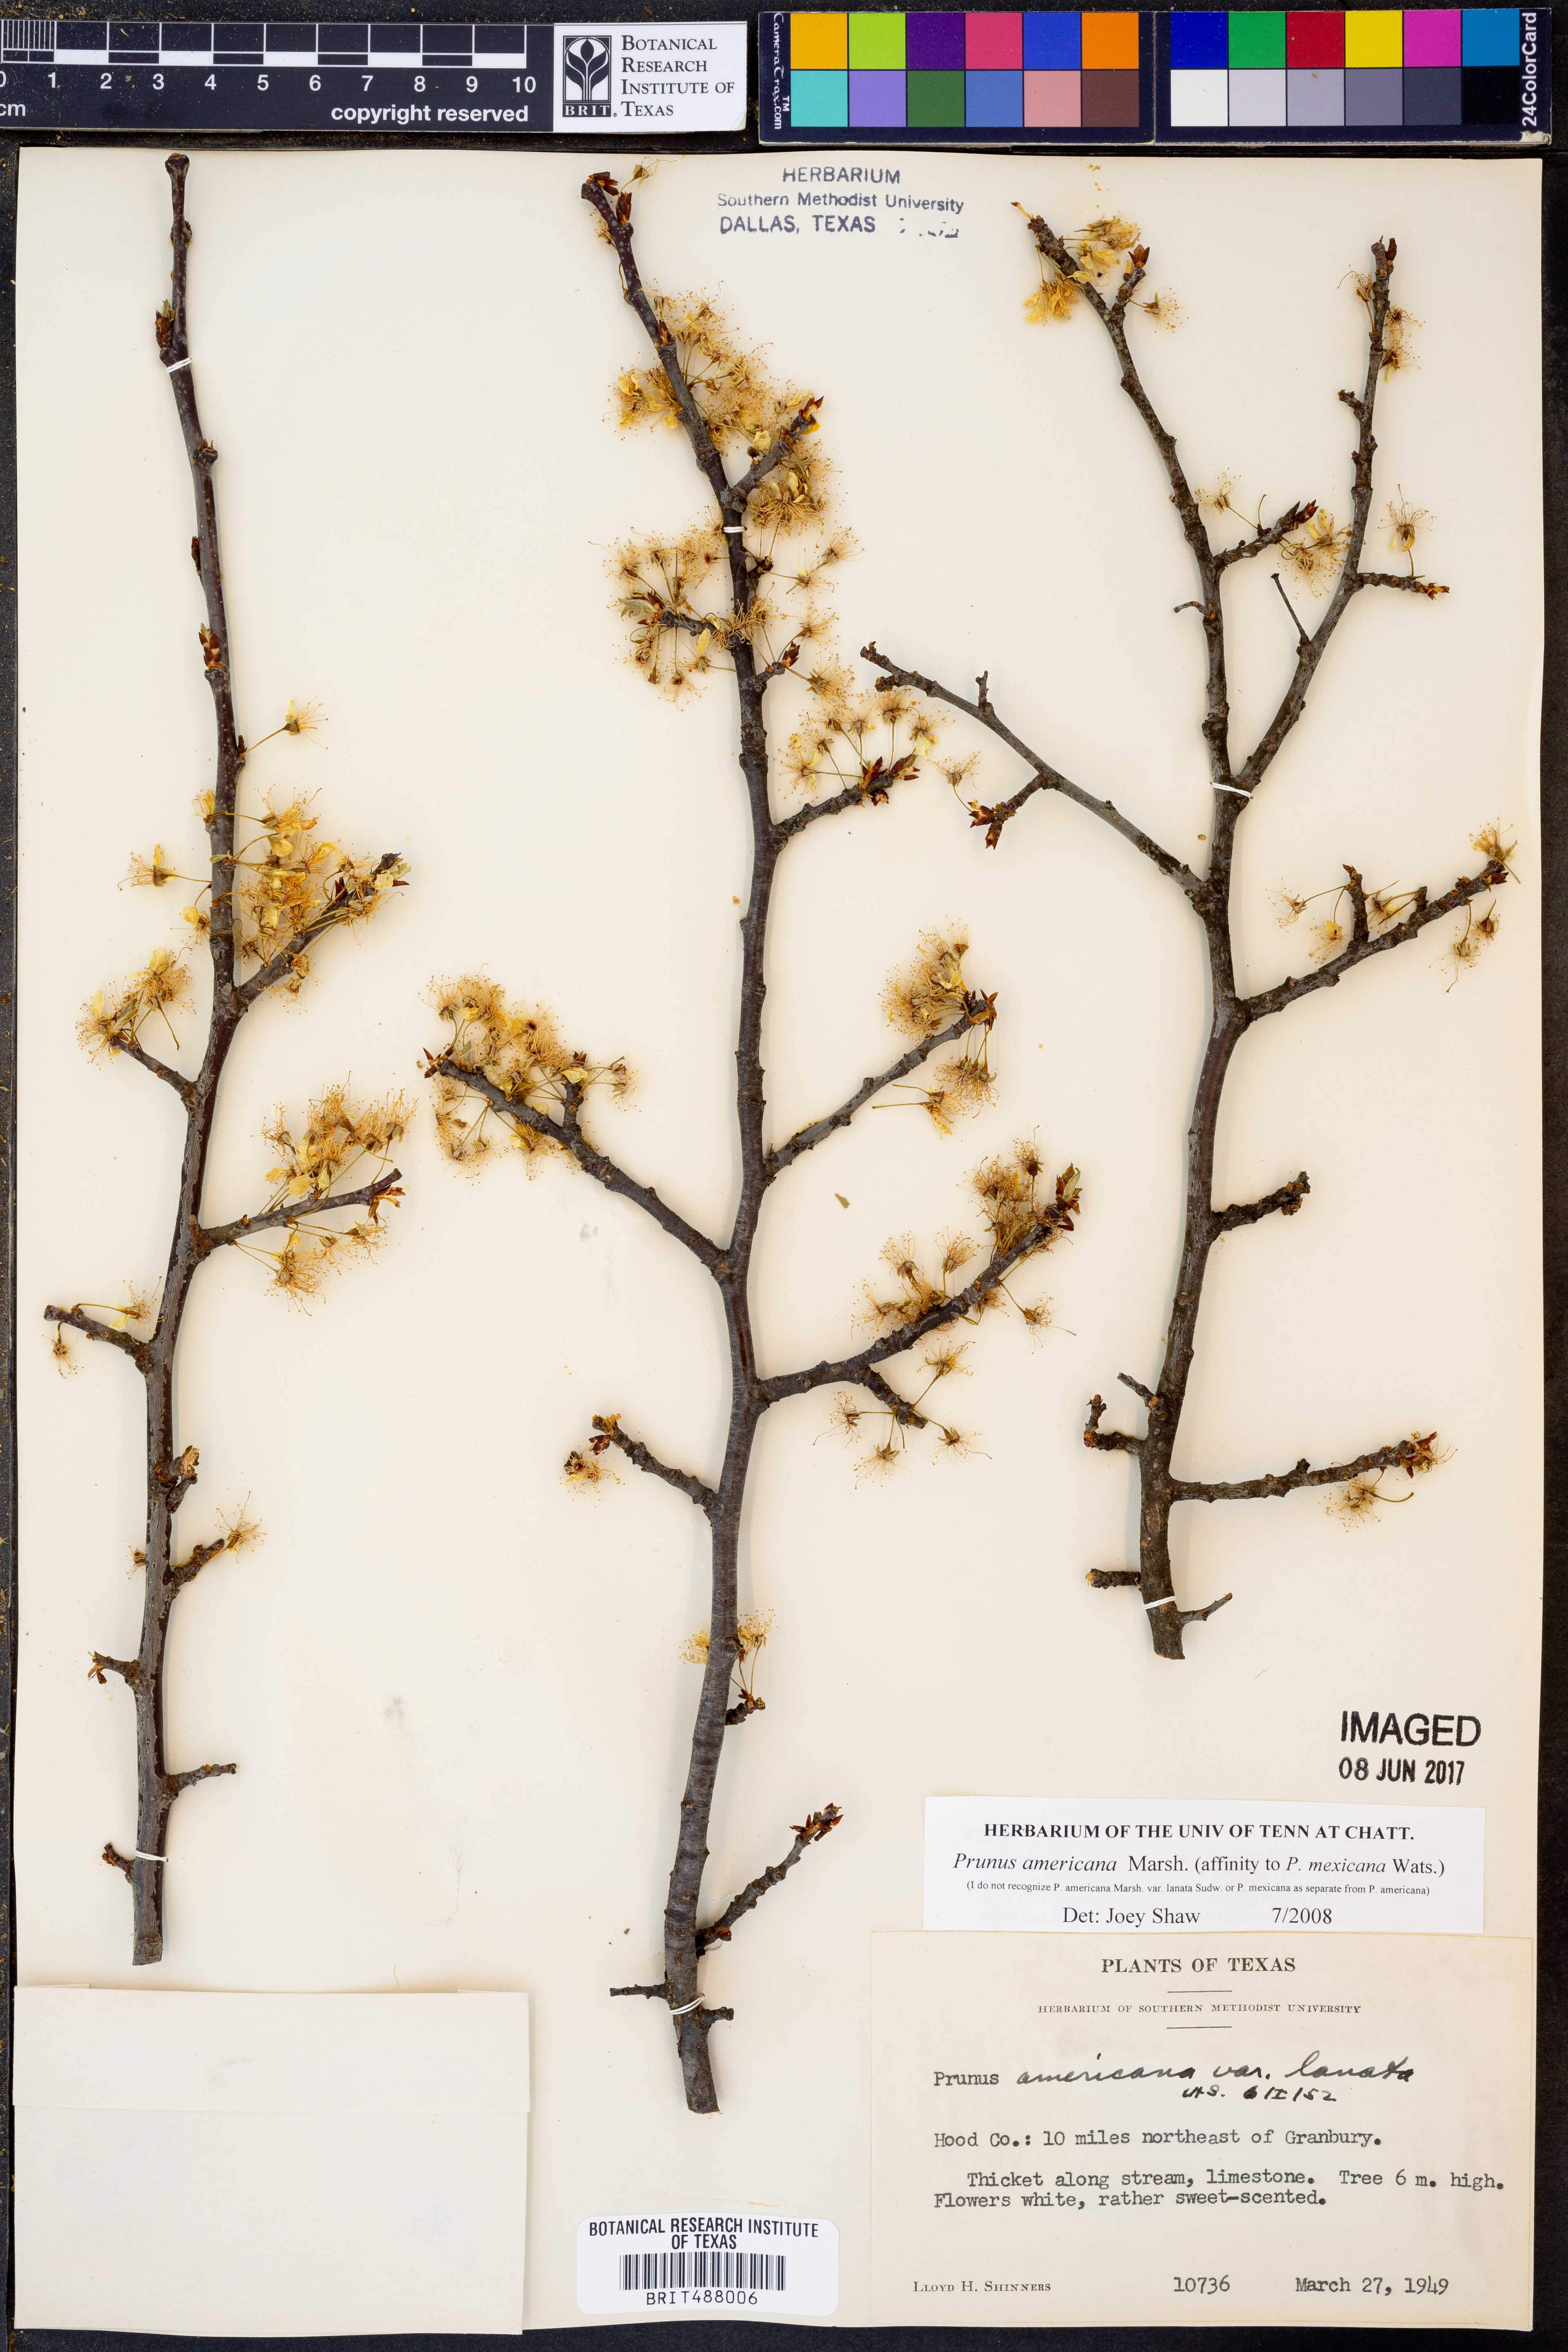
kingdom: Plantae
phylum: Tracheophyta
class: Magnoliopsida
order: Rosales
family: Rosaceae
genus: Prunus
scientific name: Prunus americana
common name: American plum
